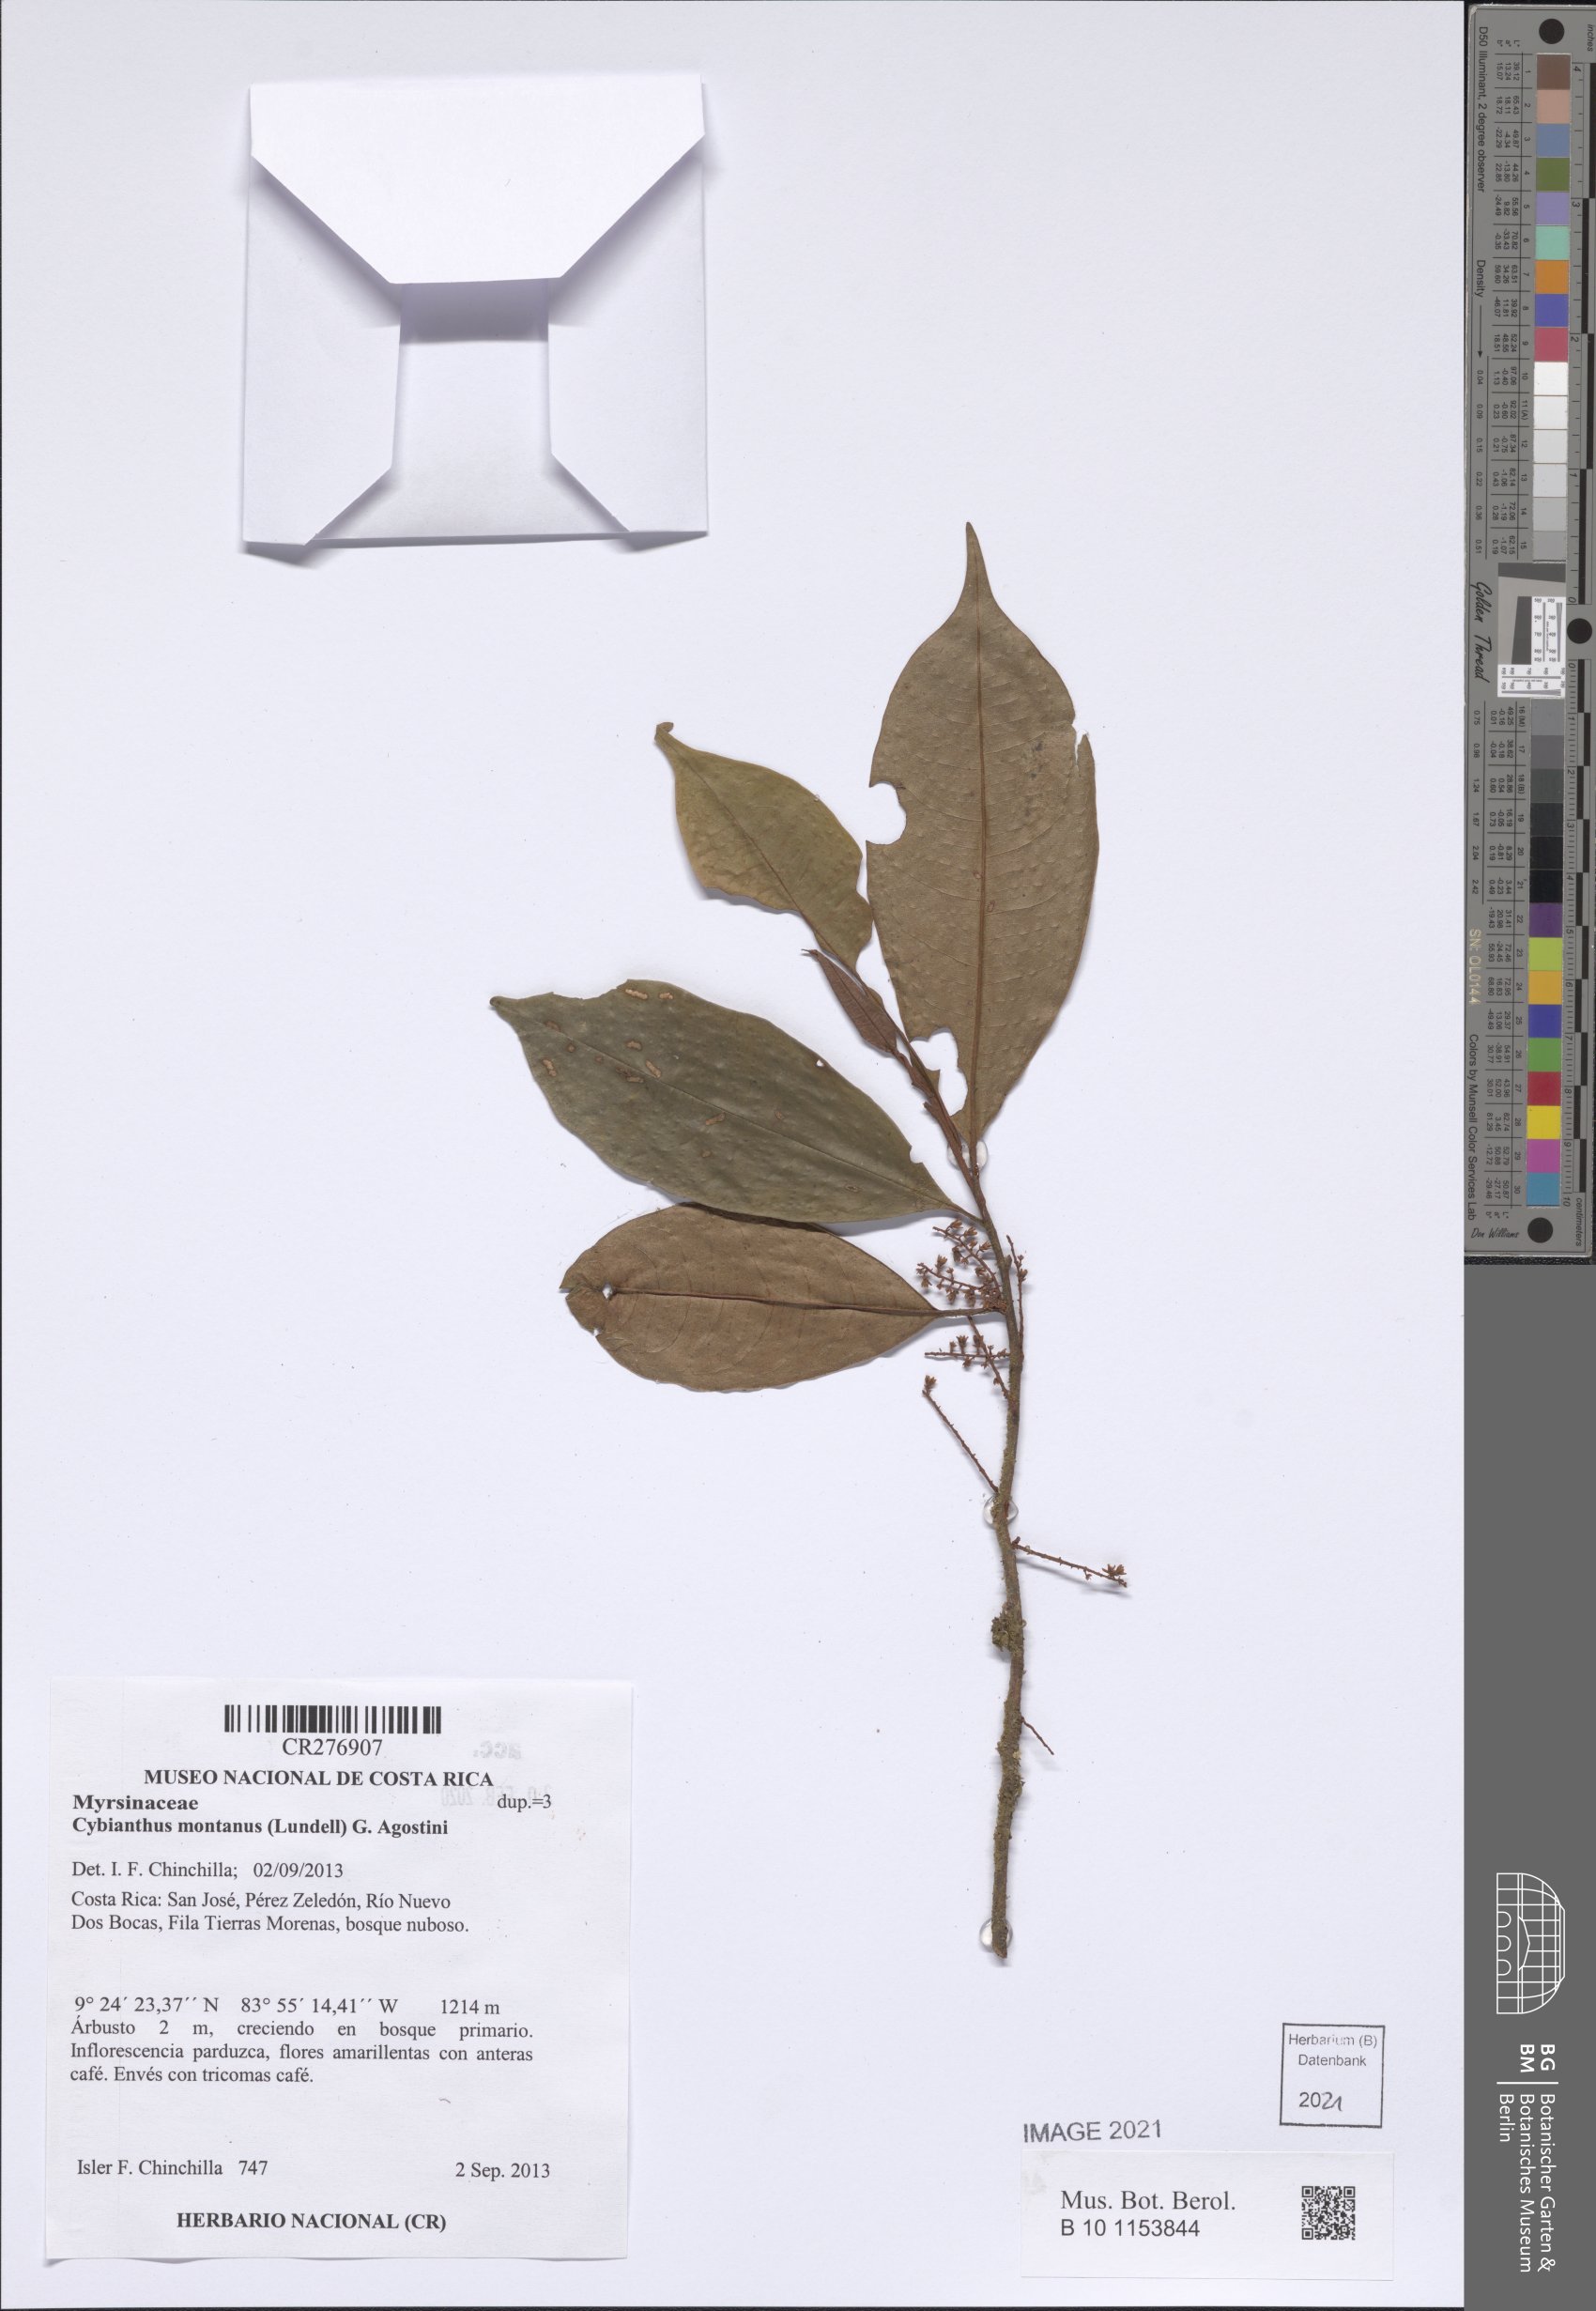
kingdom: Plantae
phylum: Tracheophyta
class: Magnoliopsida
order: Ericales
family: Primulaceae
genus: Cybianthus
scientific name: Cybianthus
